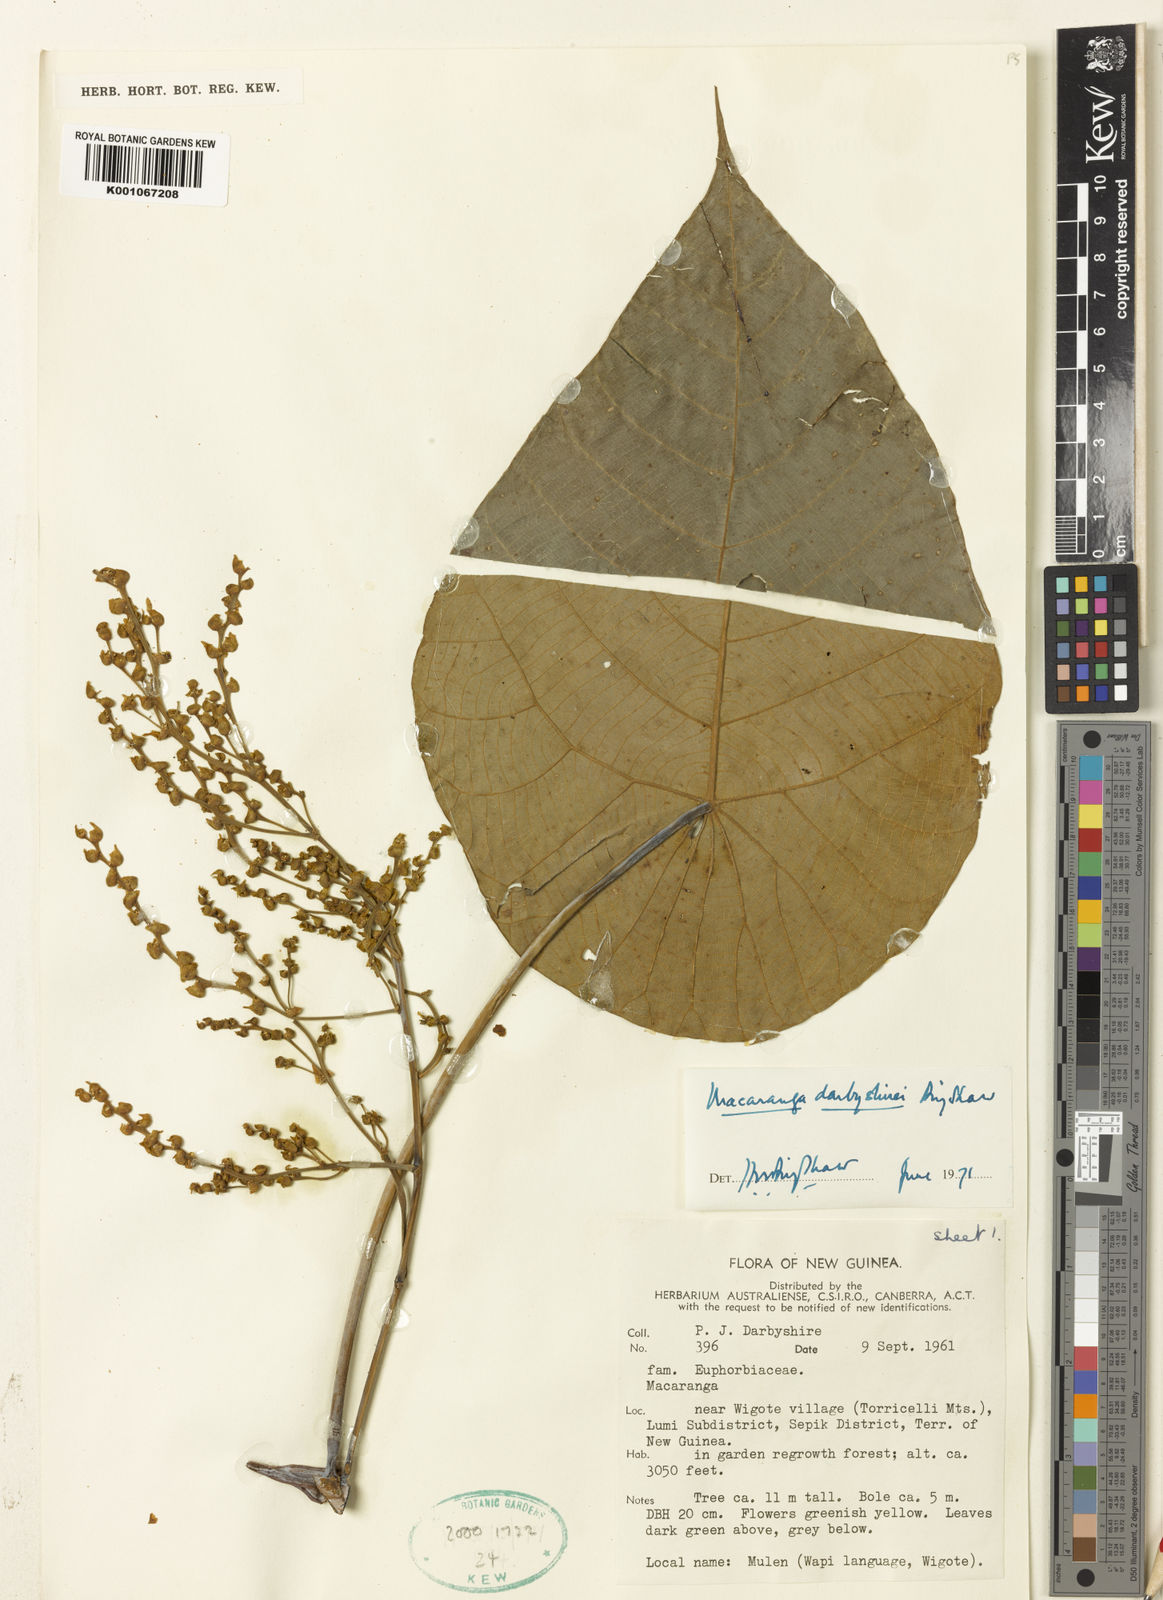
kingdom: Plantae
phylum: Tracheophyta
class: Magnoliopsida
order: Malpighiales
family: Euphorbiaceae
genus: Macaranga
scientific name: Macaranga darbyshirei
